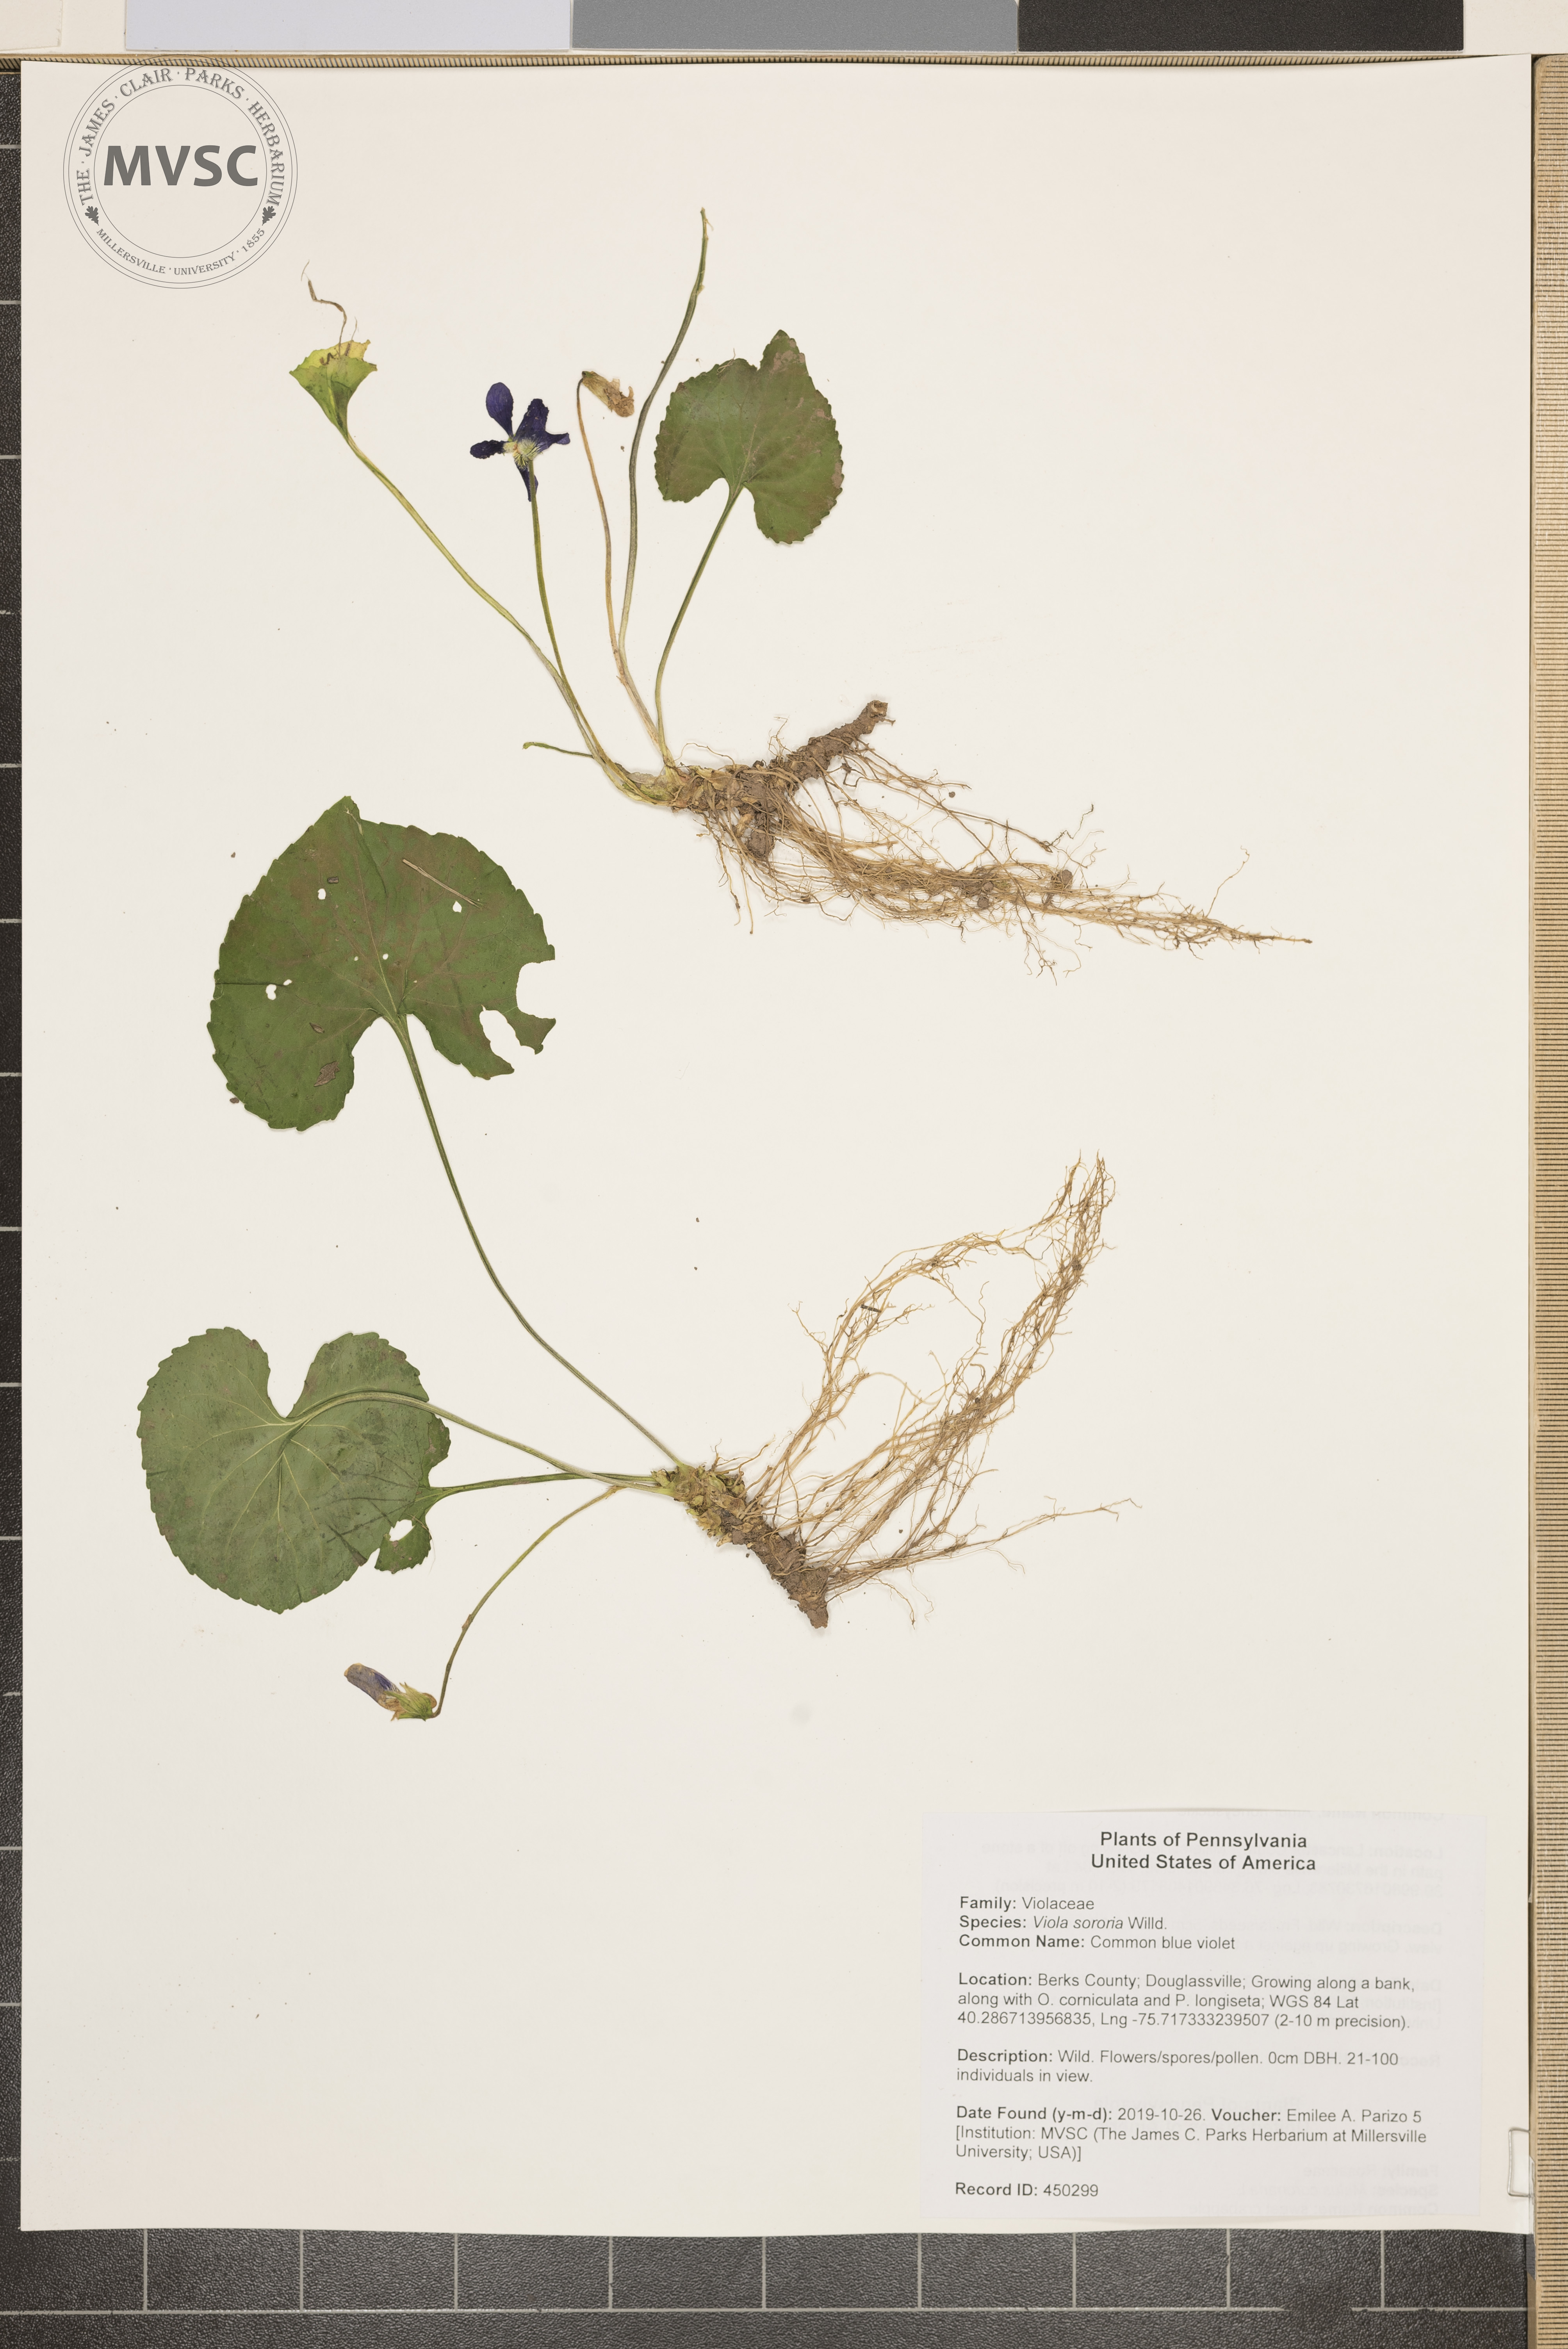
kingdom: Plantae
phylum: Tracheophyta
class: Magnoliopsida
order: Malpighiales
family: Violaceae
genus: Viola
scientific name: Viola sororia
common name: Common blue violet
